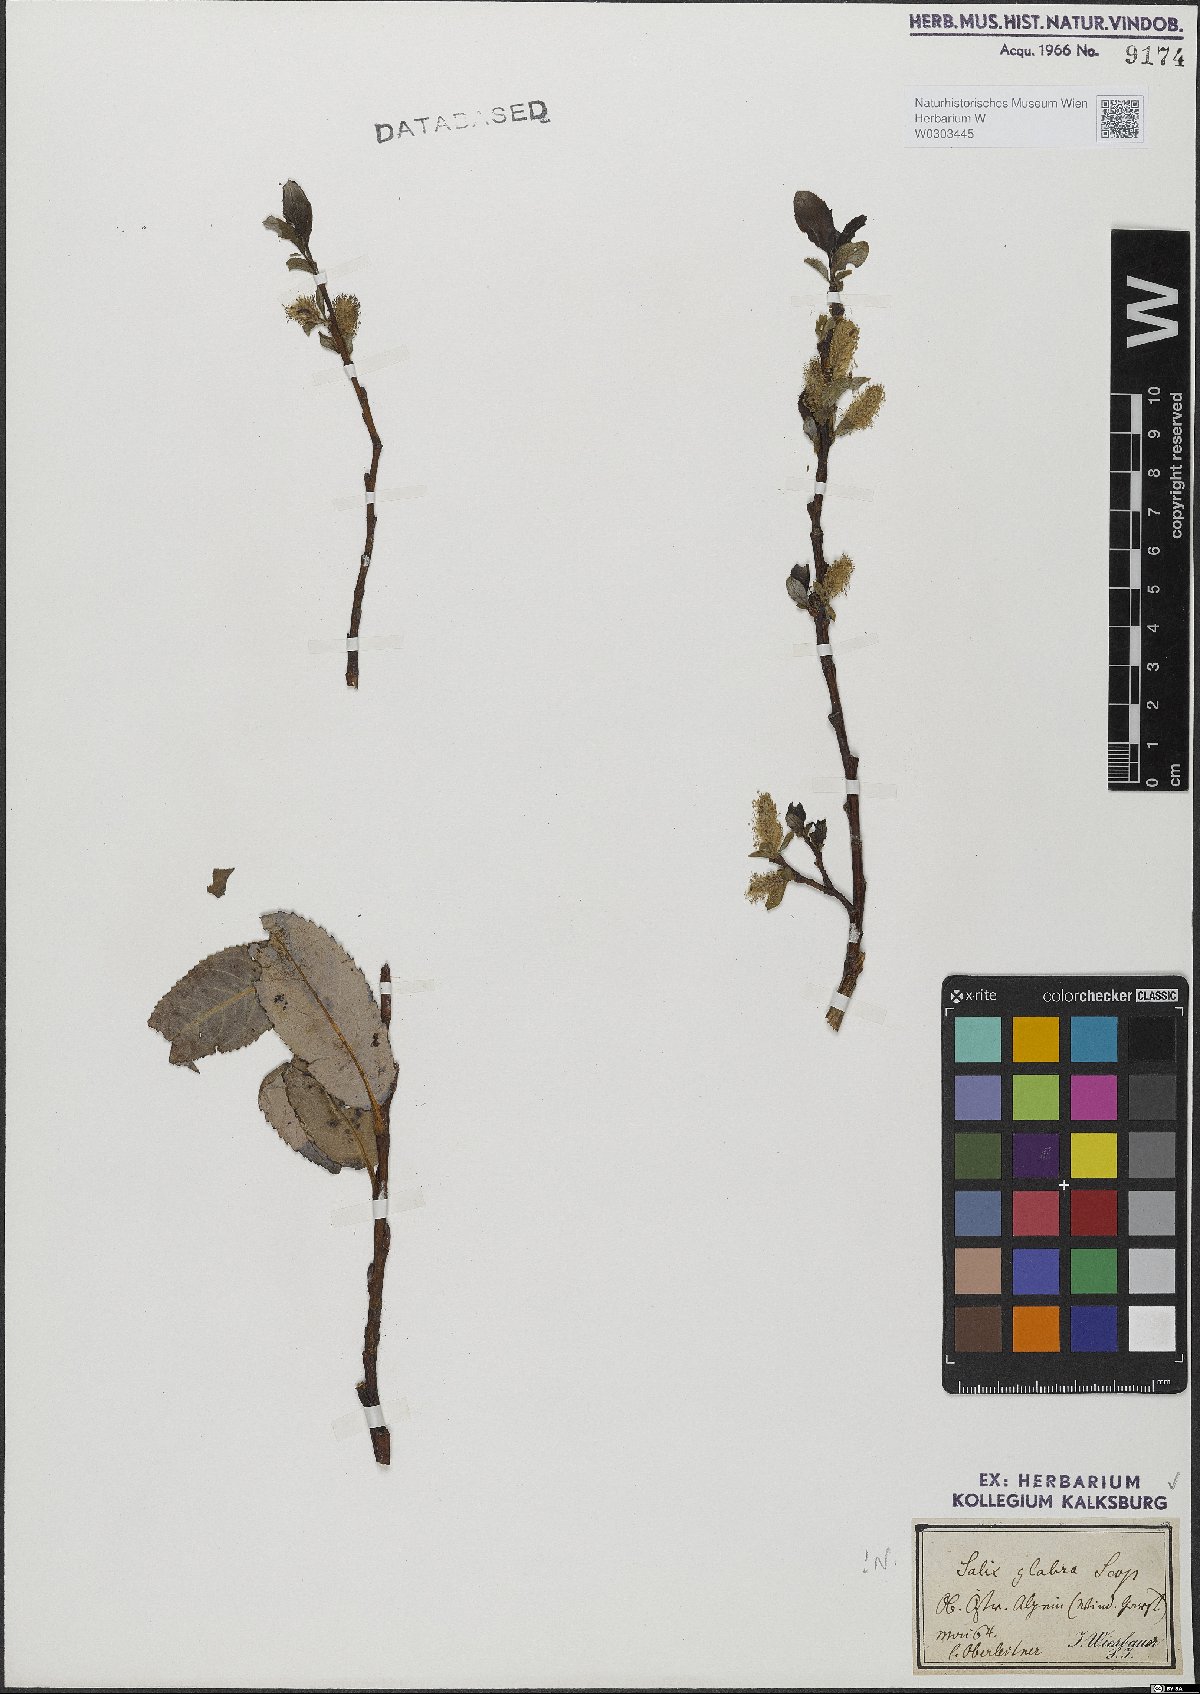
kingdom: Plantae
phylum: Tracheophyta
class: Magnoliopsida
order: Malpighiales
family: Salicaceae
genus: Salix
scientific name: Salix glabra
